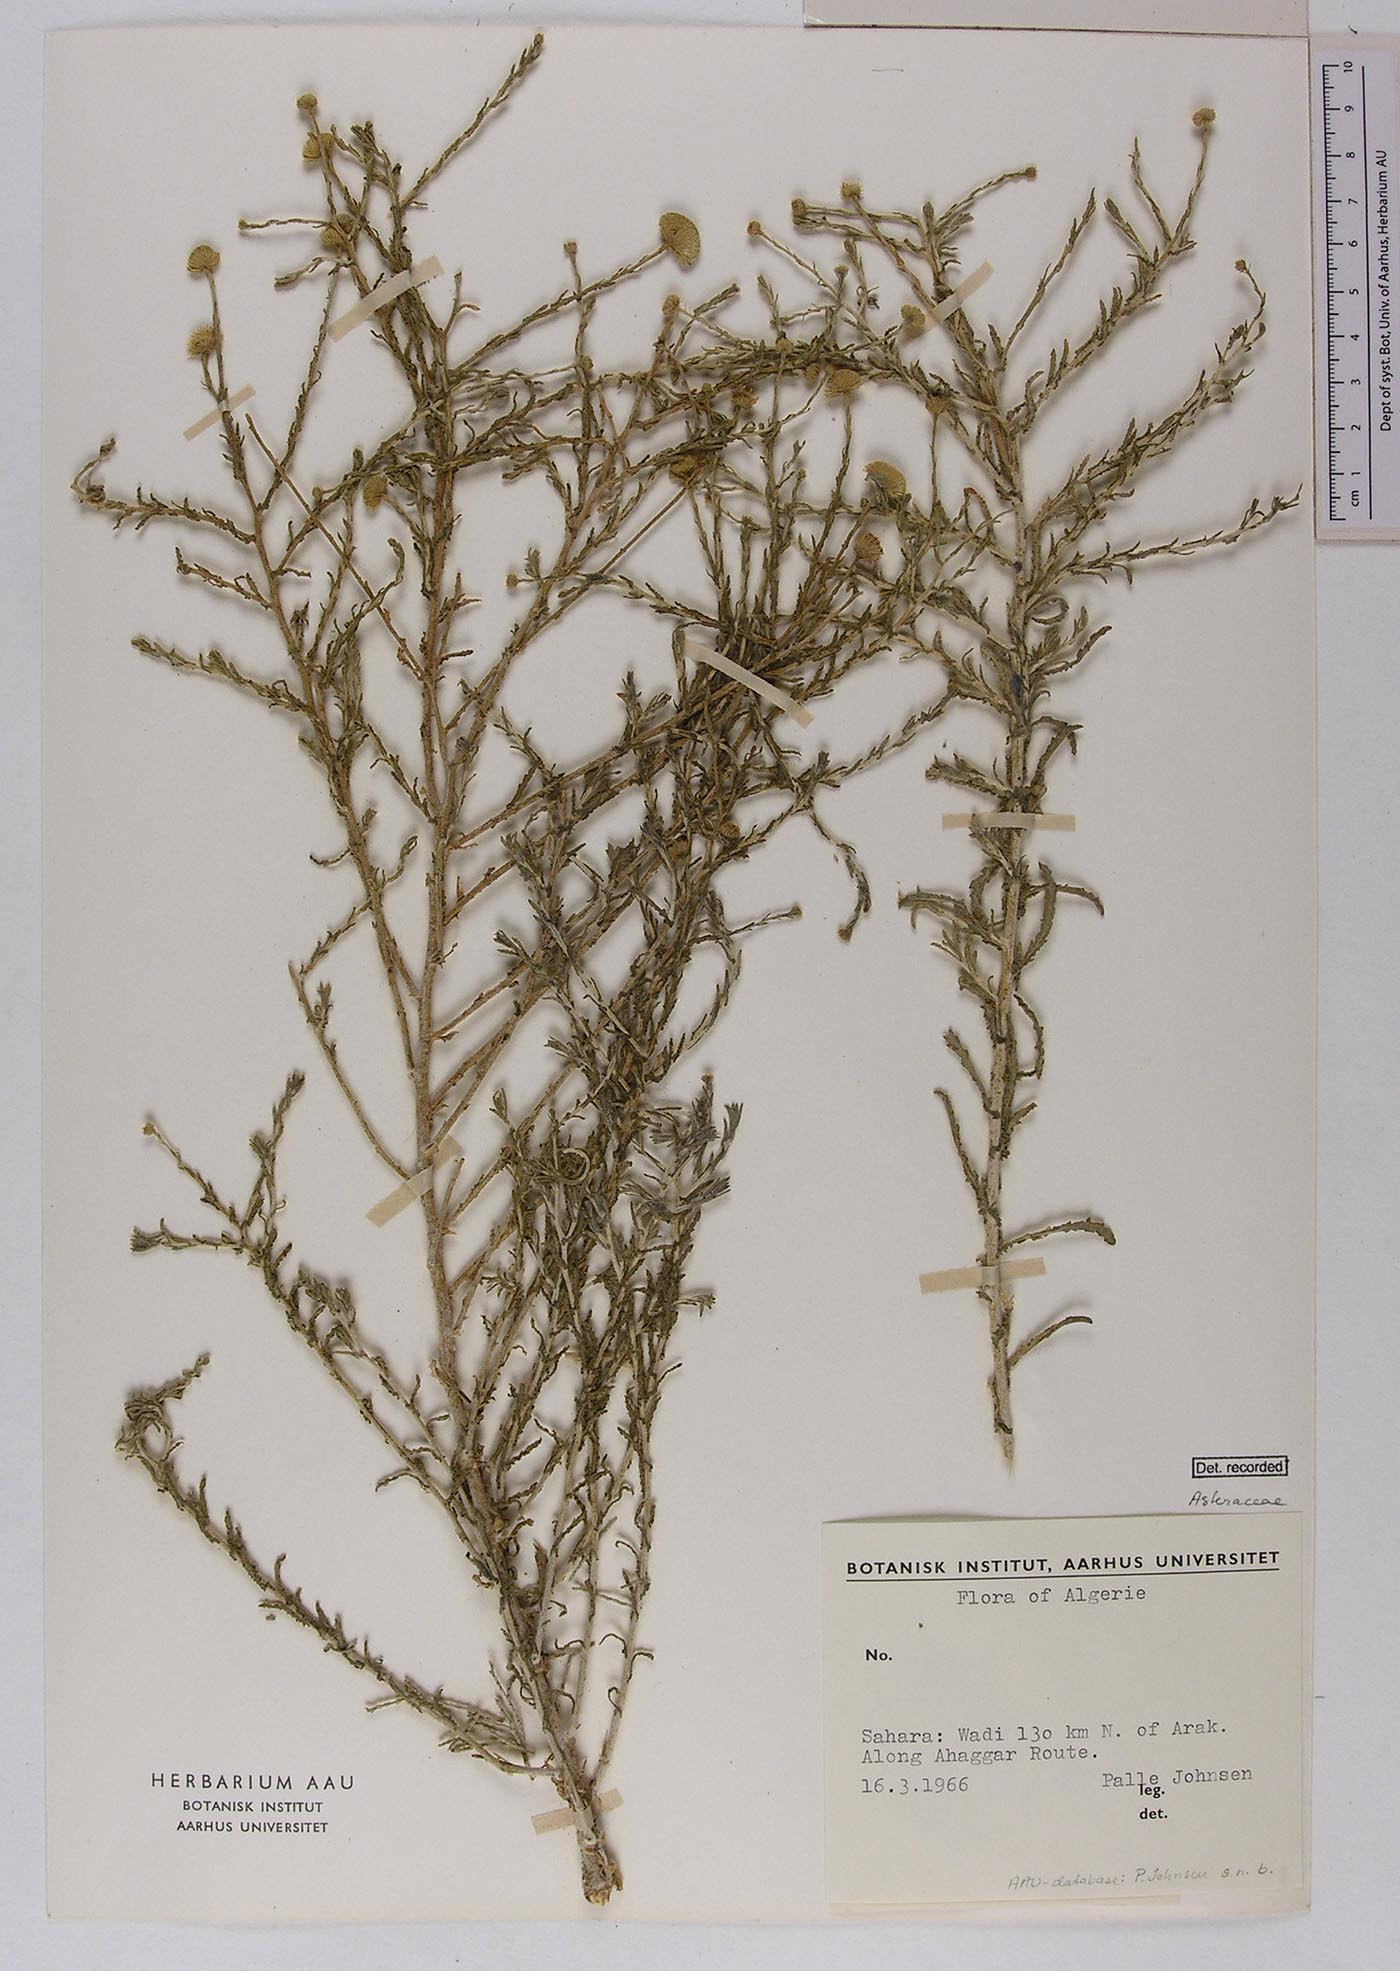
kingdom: Plantae
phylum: Tracheophyta
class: Magnoliopsida
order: Asterales
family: Asteraceae
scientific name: Asteraceae
